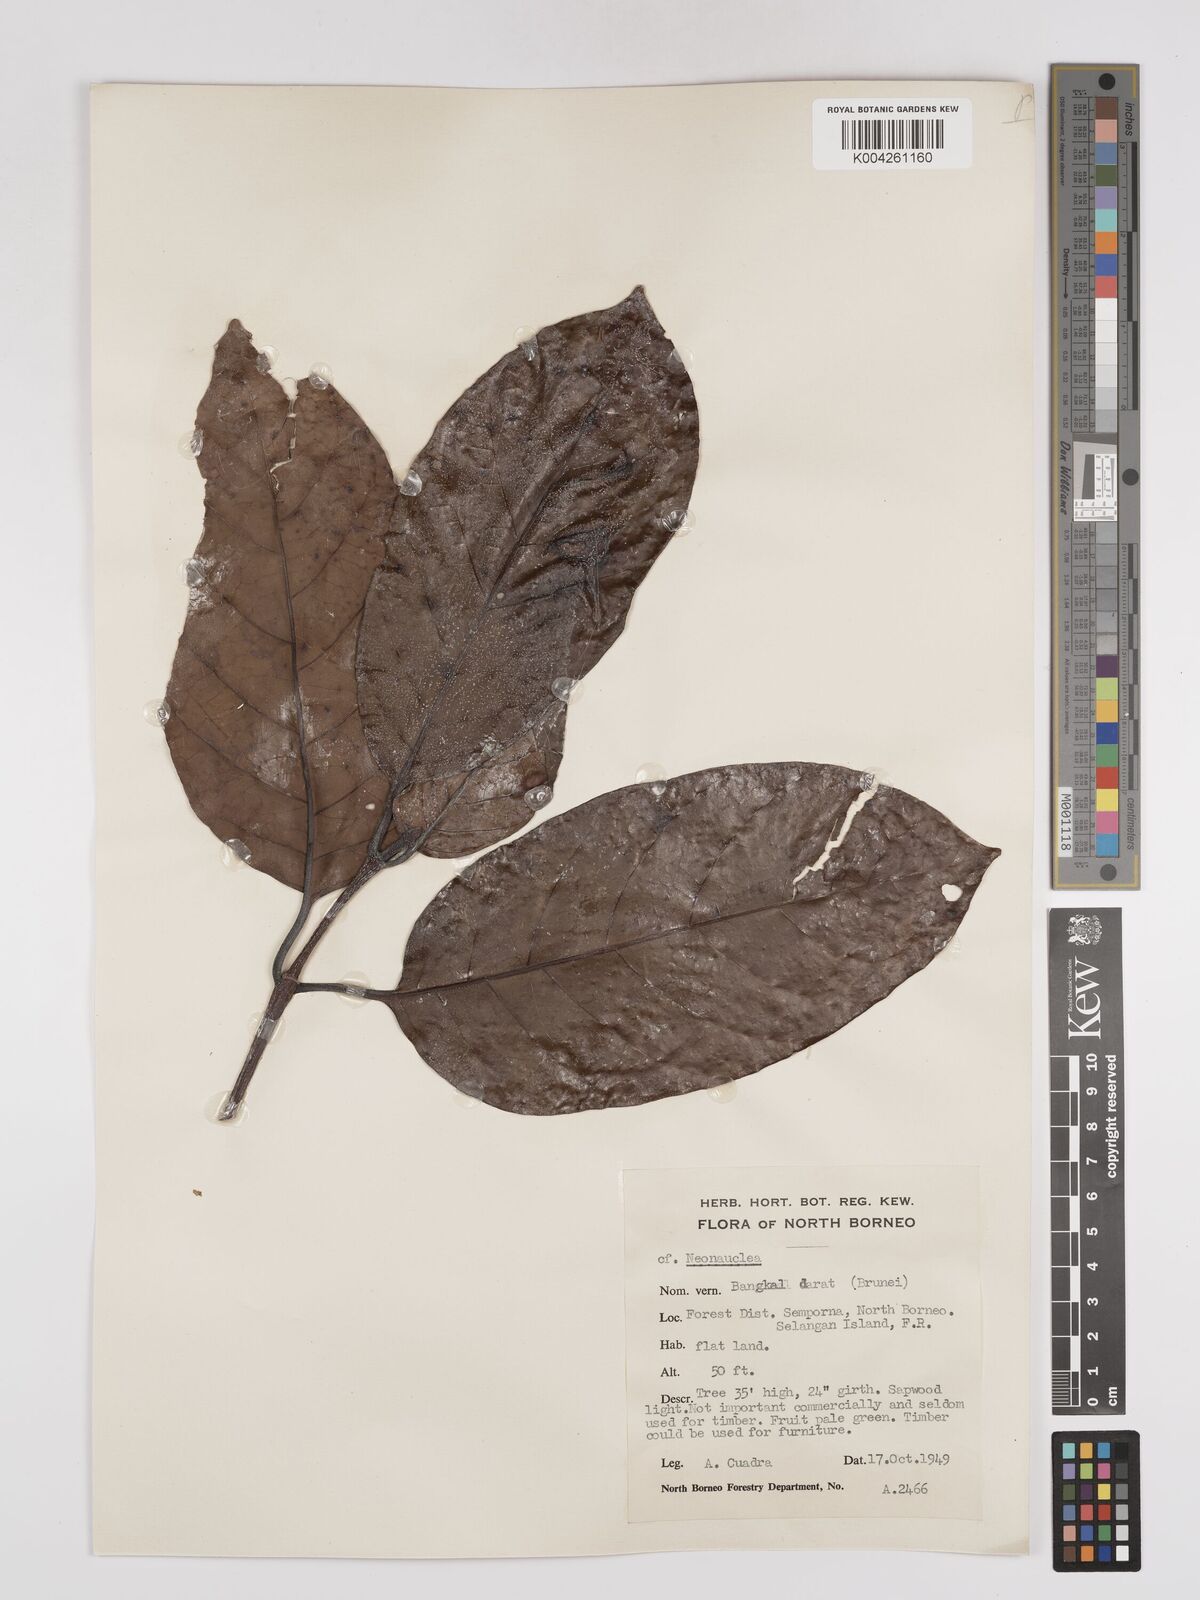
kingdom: Plantae
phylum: Tracheophyta
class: Magnoliopsida
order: Gentianales
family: Rubiaceae
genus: Neonauclea
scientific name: Neonauclea
